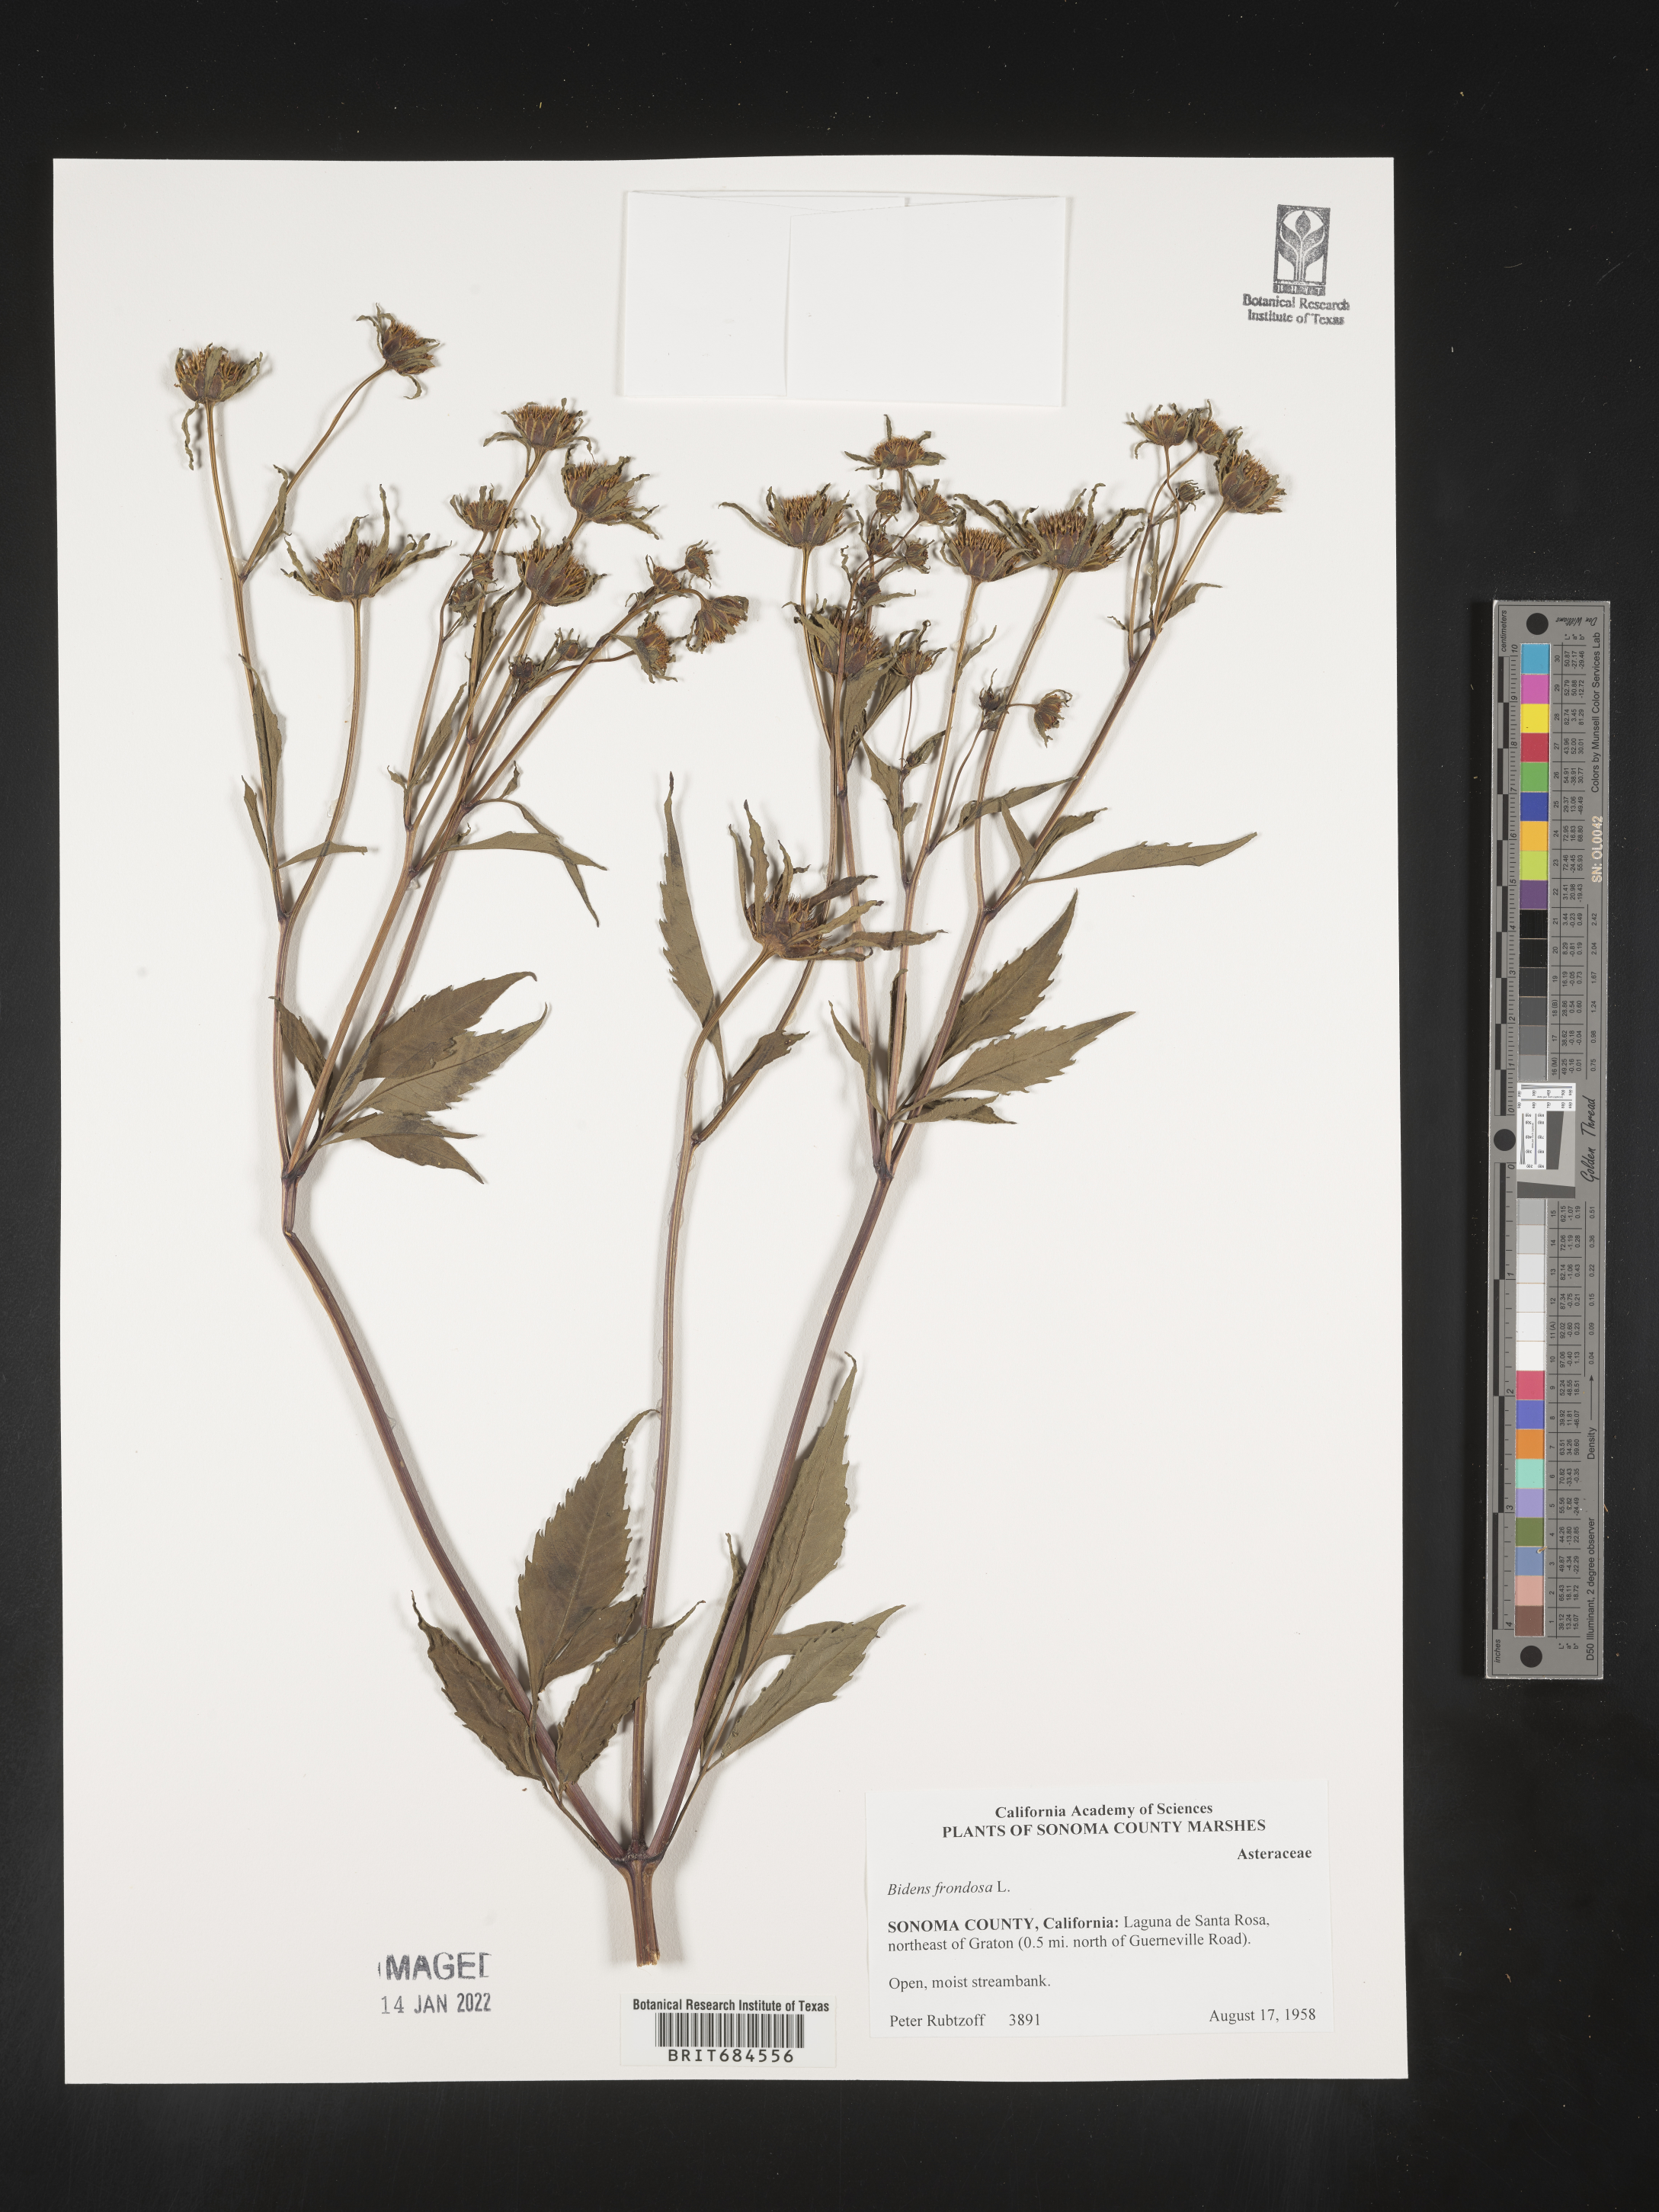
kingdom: Plantae
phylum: Tracheophyta
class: Magnoliopsida
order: Asterales
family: Asteraceae
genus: Bidens
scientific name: Bidens frondosa
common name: Beggarticks
